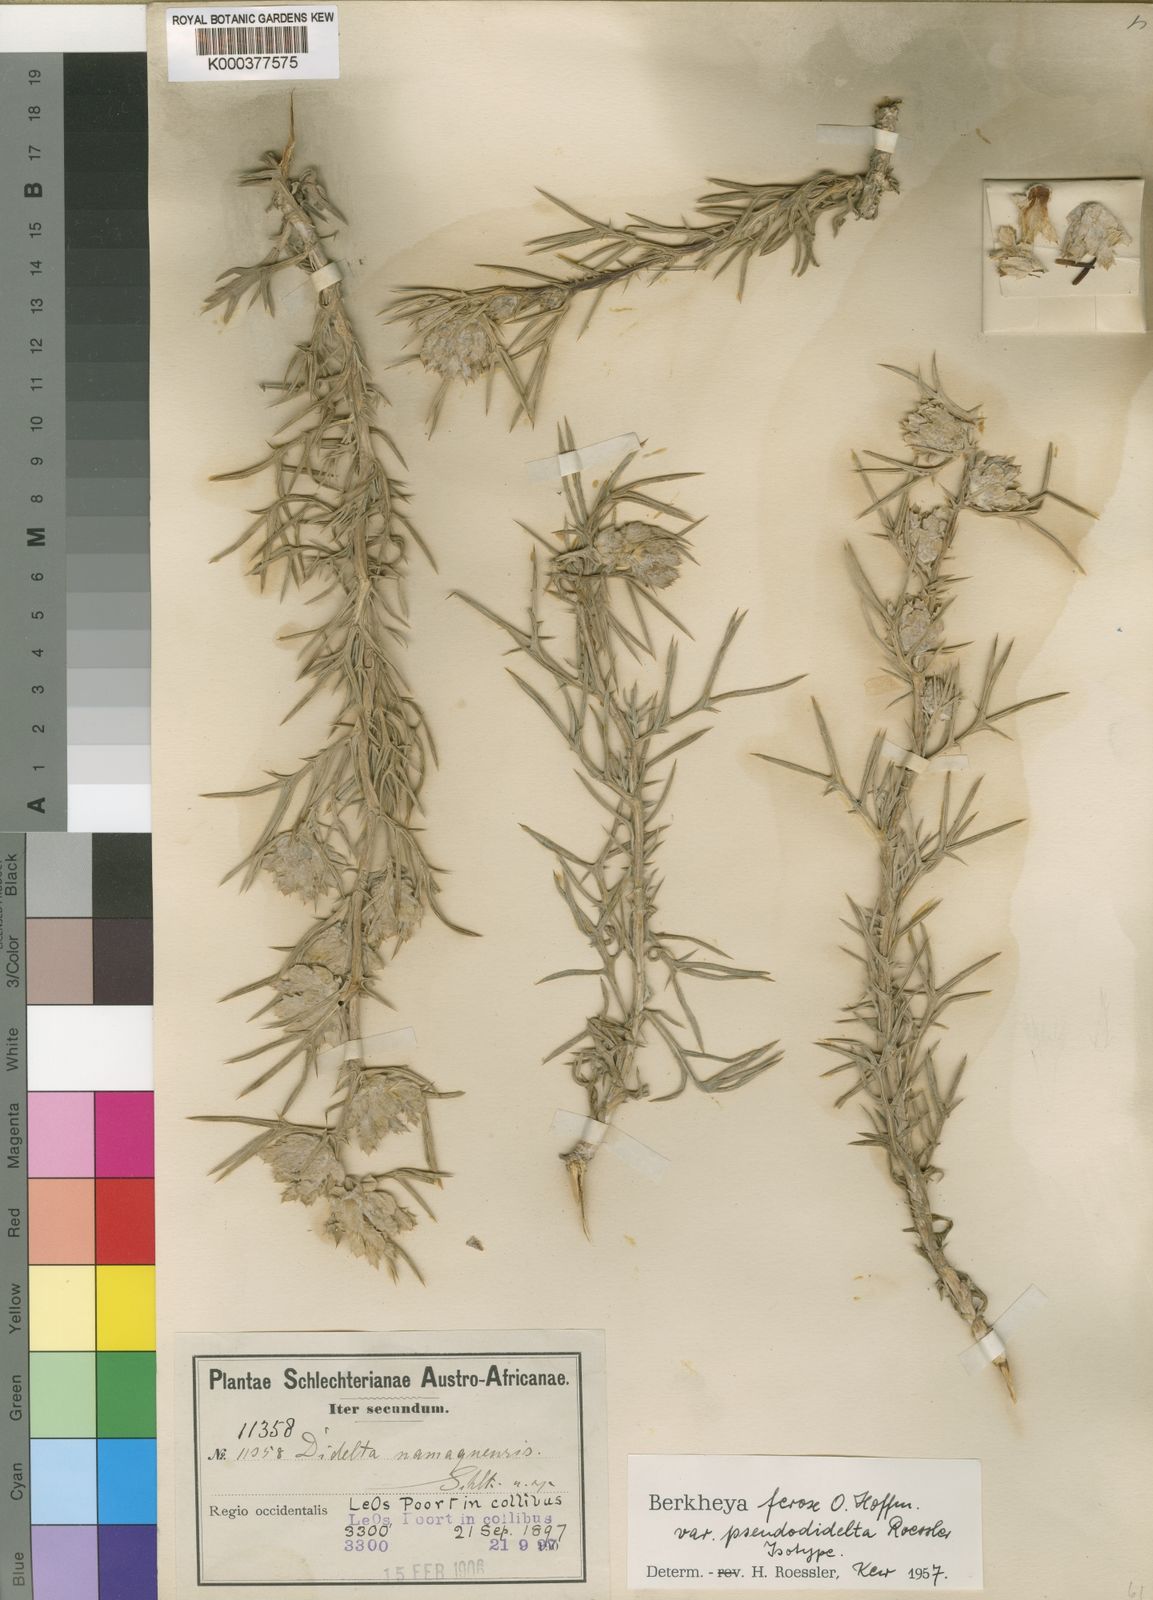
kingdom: Plantae
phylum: Tracheophyta
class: Magnoliopsida
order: Asterales
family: Asteraceae
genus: Berkheya
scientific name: Berkheya ferox
